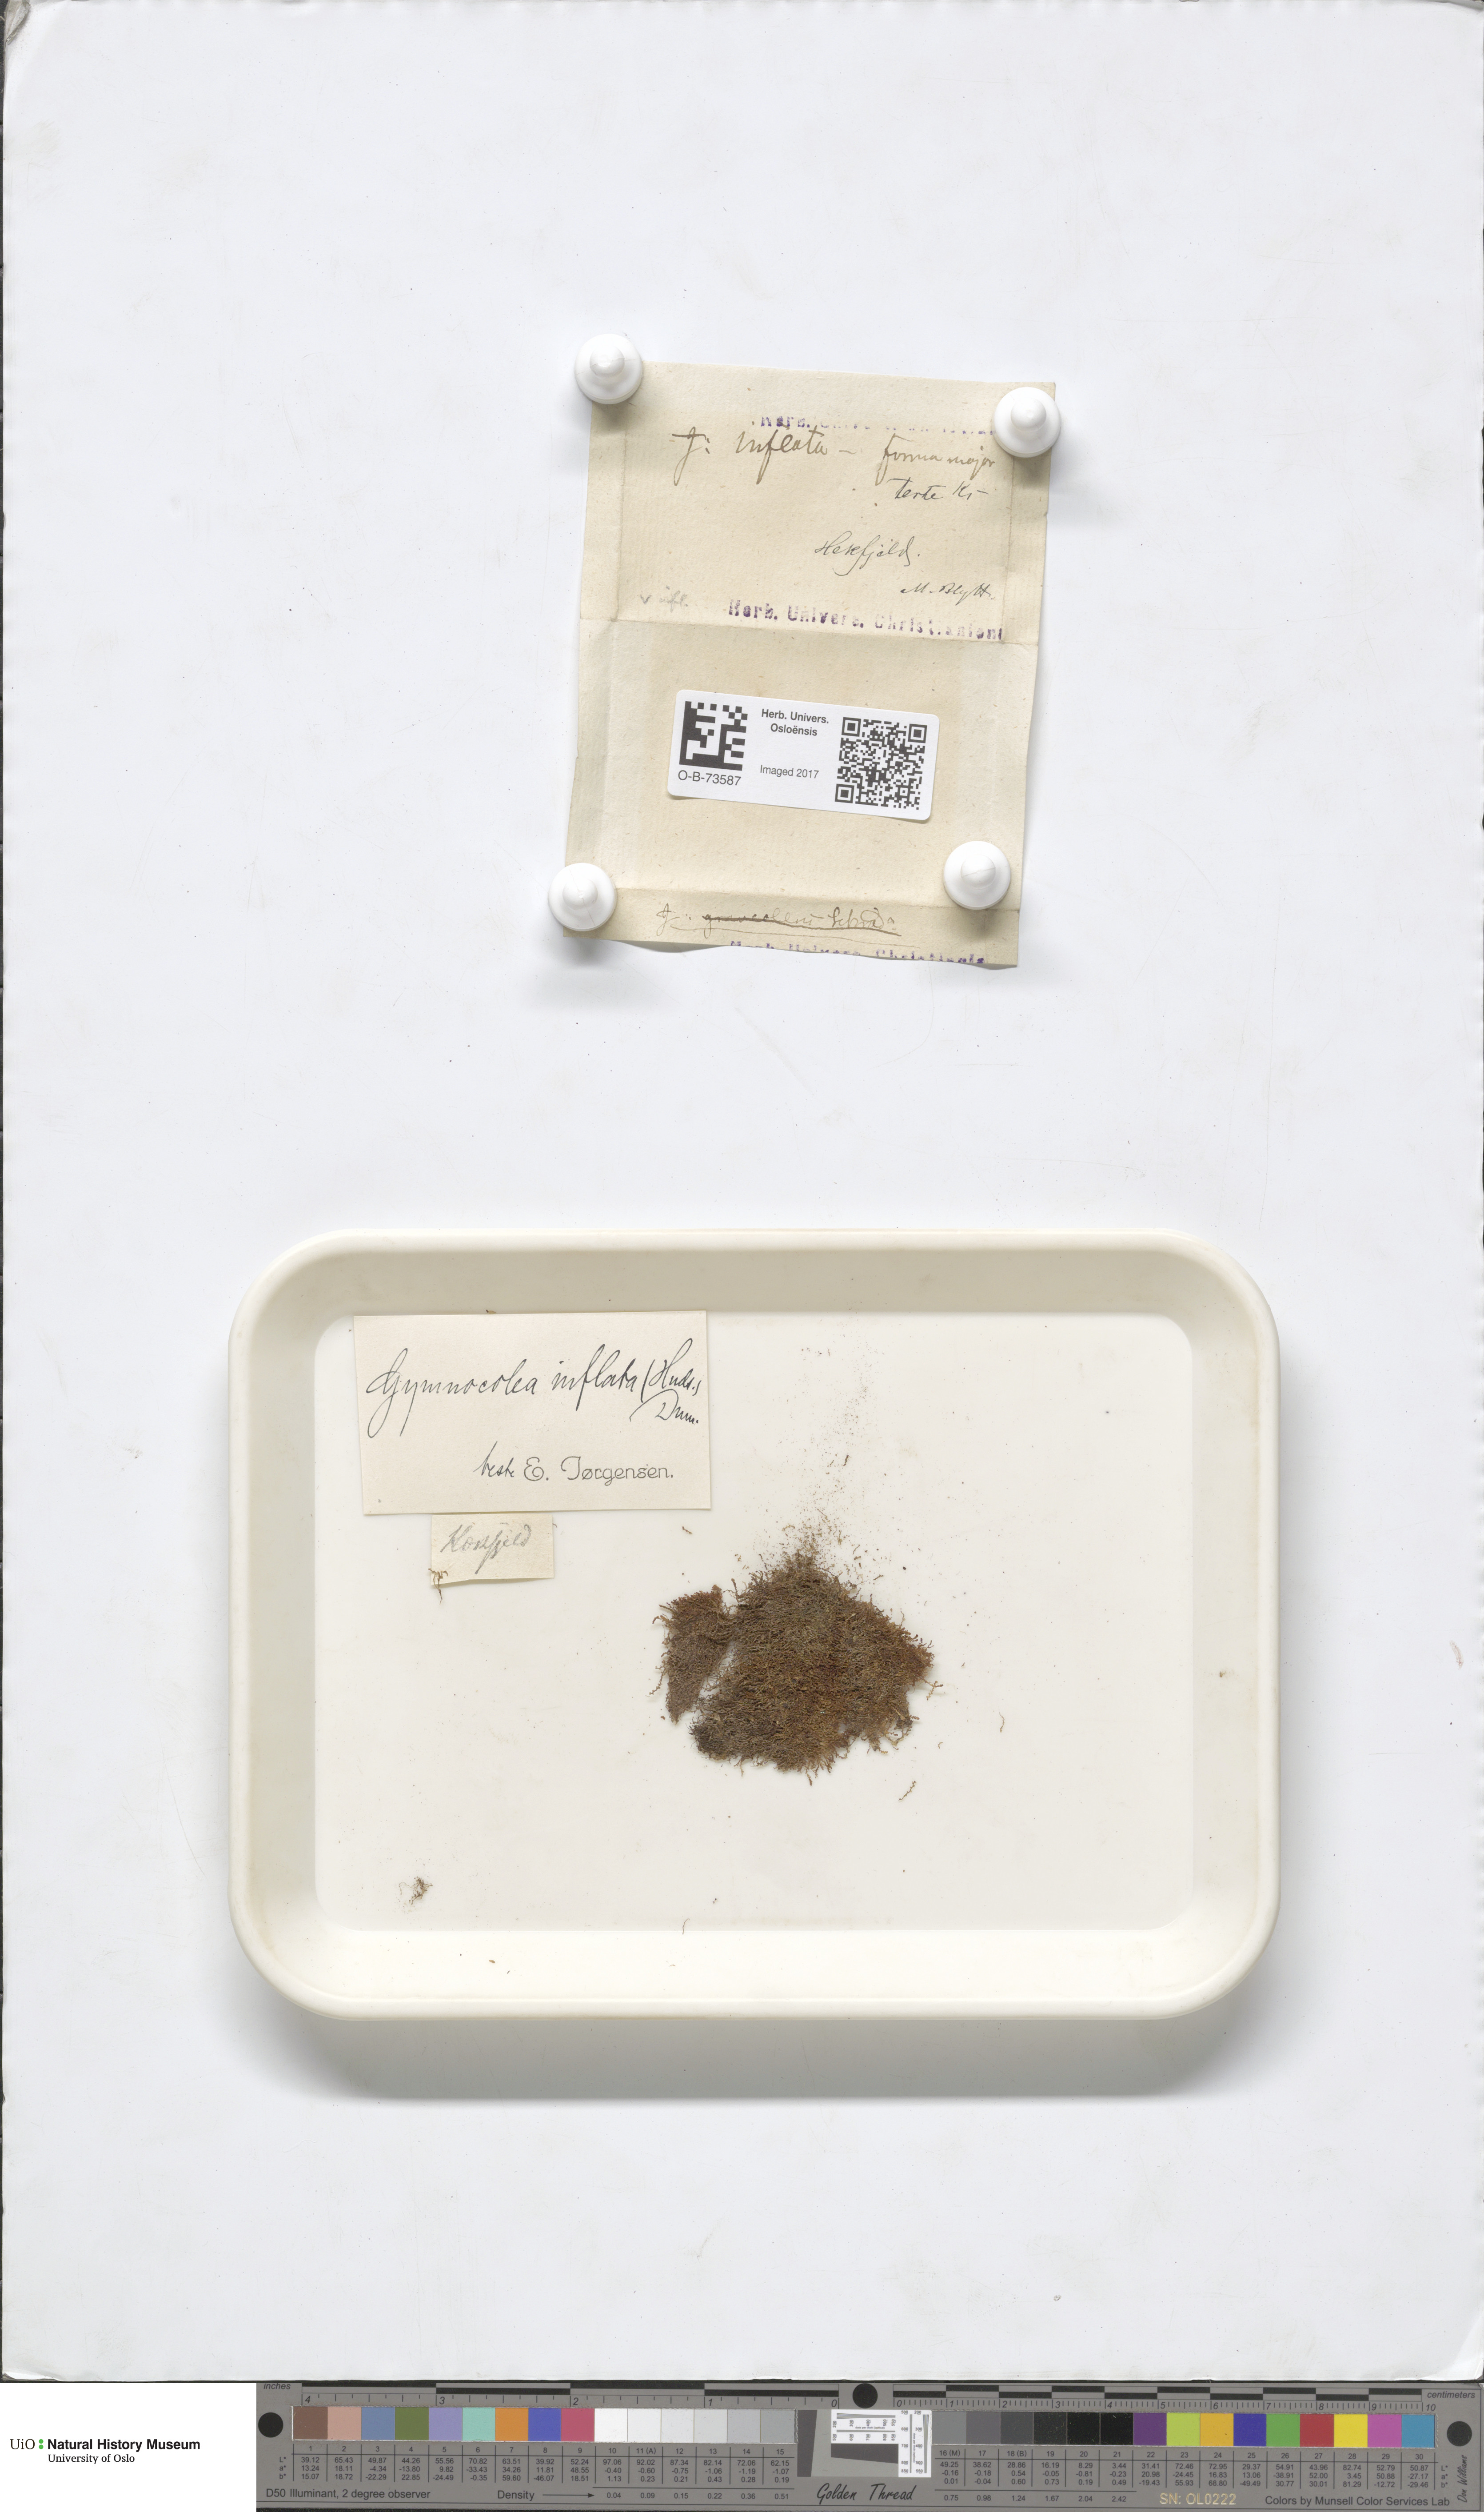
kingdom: Plantae
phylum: Marchantiophyta
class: Jungermanniopsida
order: Jungermanniales
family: Anastrophyllaceae
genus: Gymnocolea
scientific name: Gymnocolea inflata
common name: Inflated notchwort
